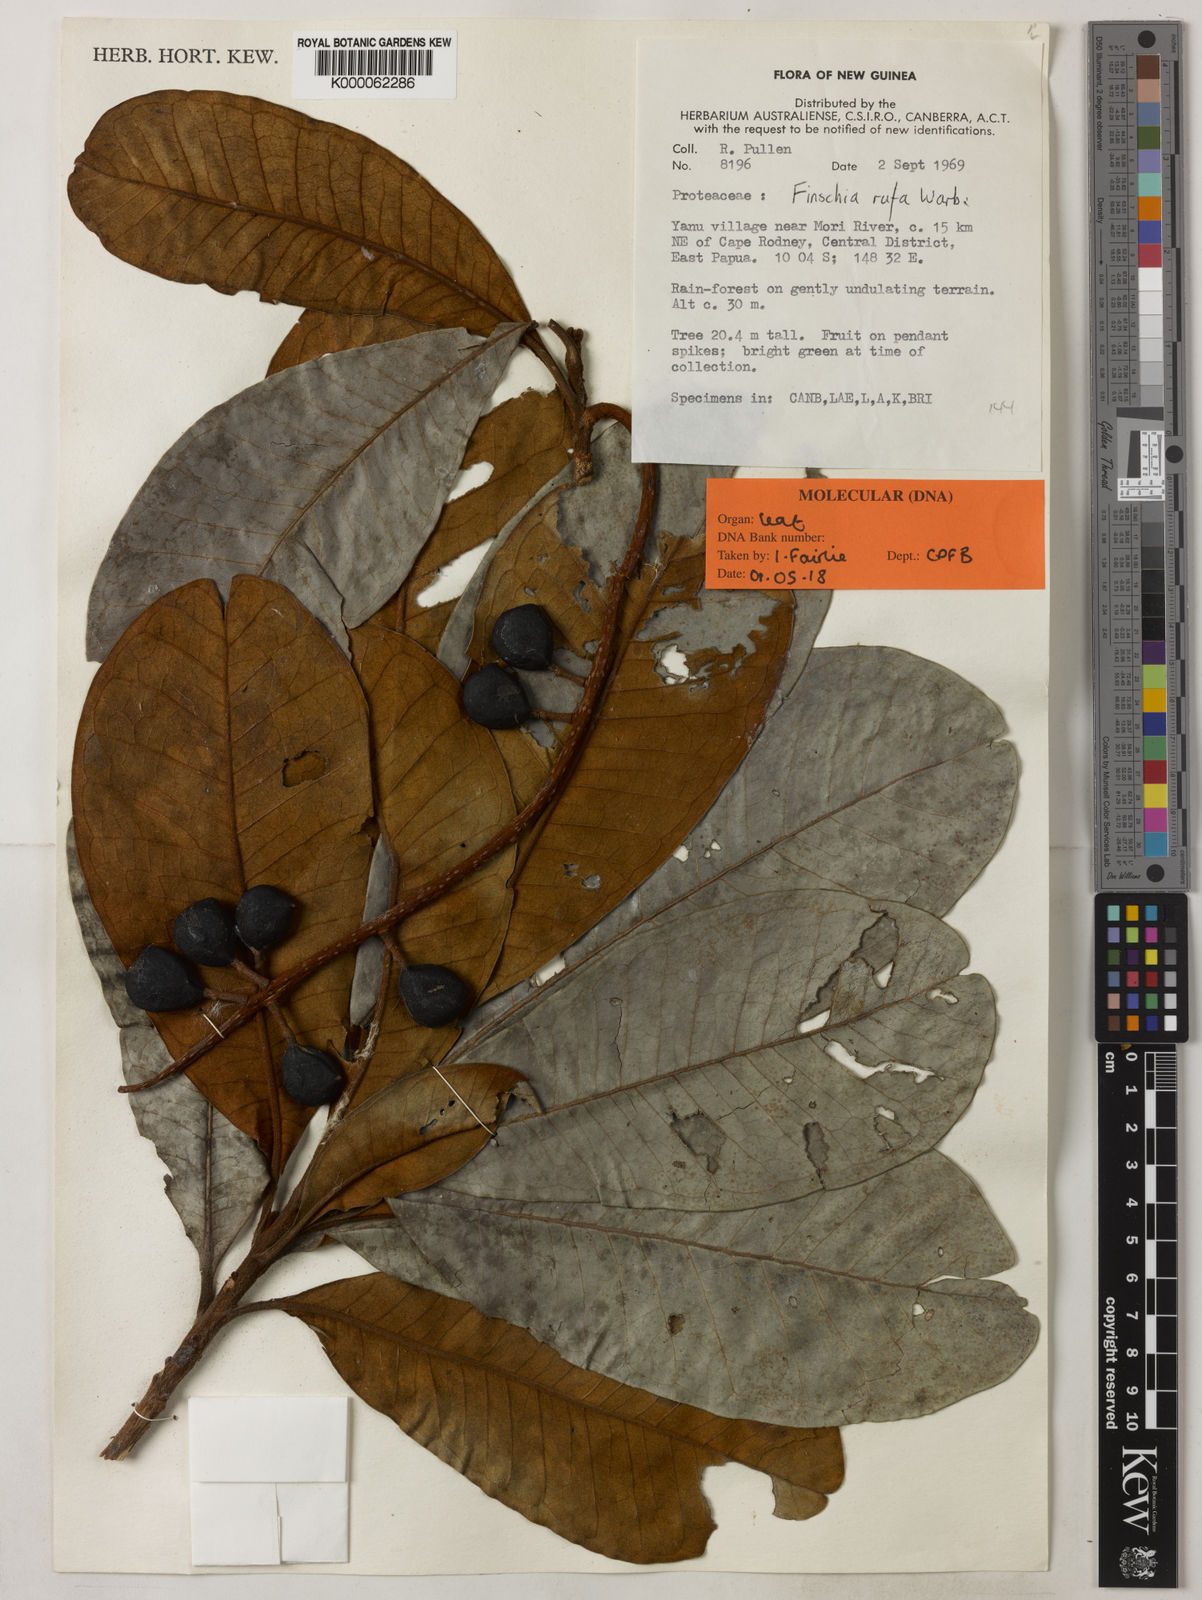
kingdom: Plantae
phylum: Tracheophyta
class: Magnoliopsida
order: Proteales
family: Proteaceae
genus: Finschia
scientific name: Finschia rufa
